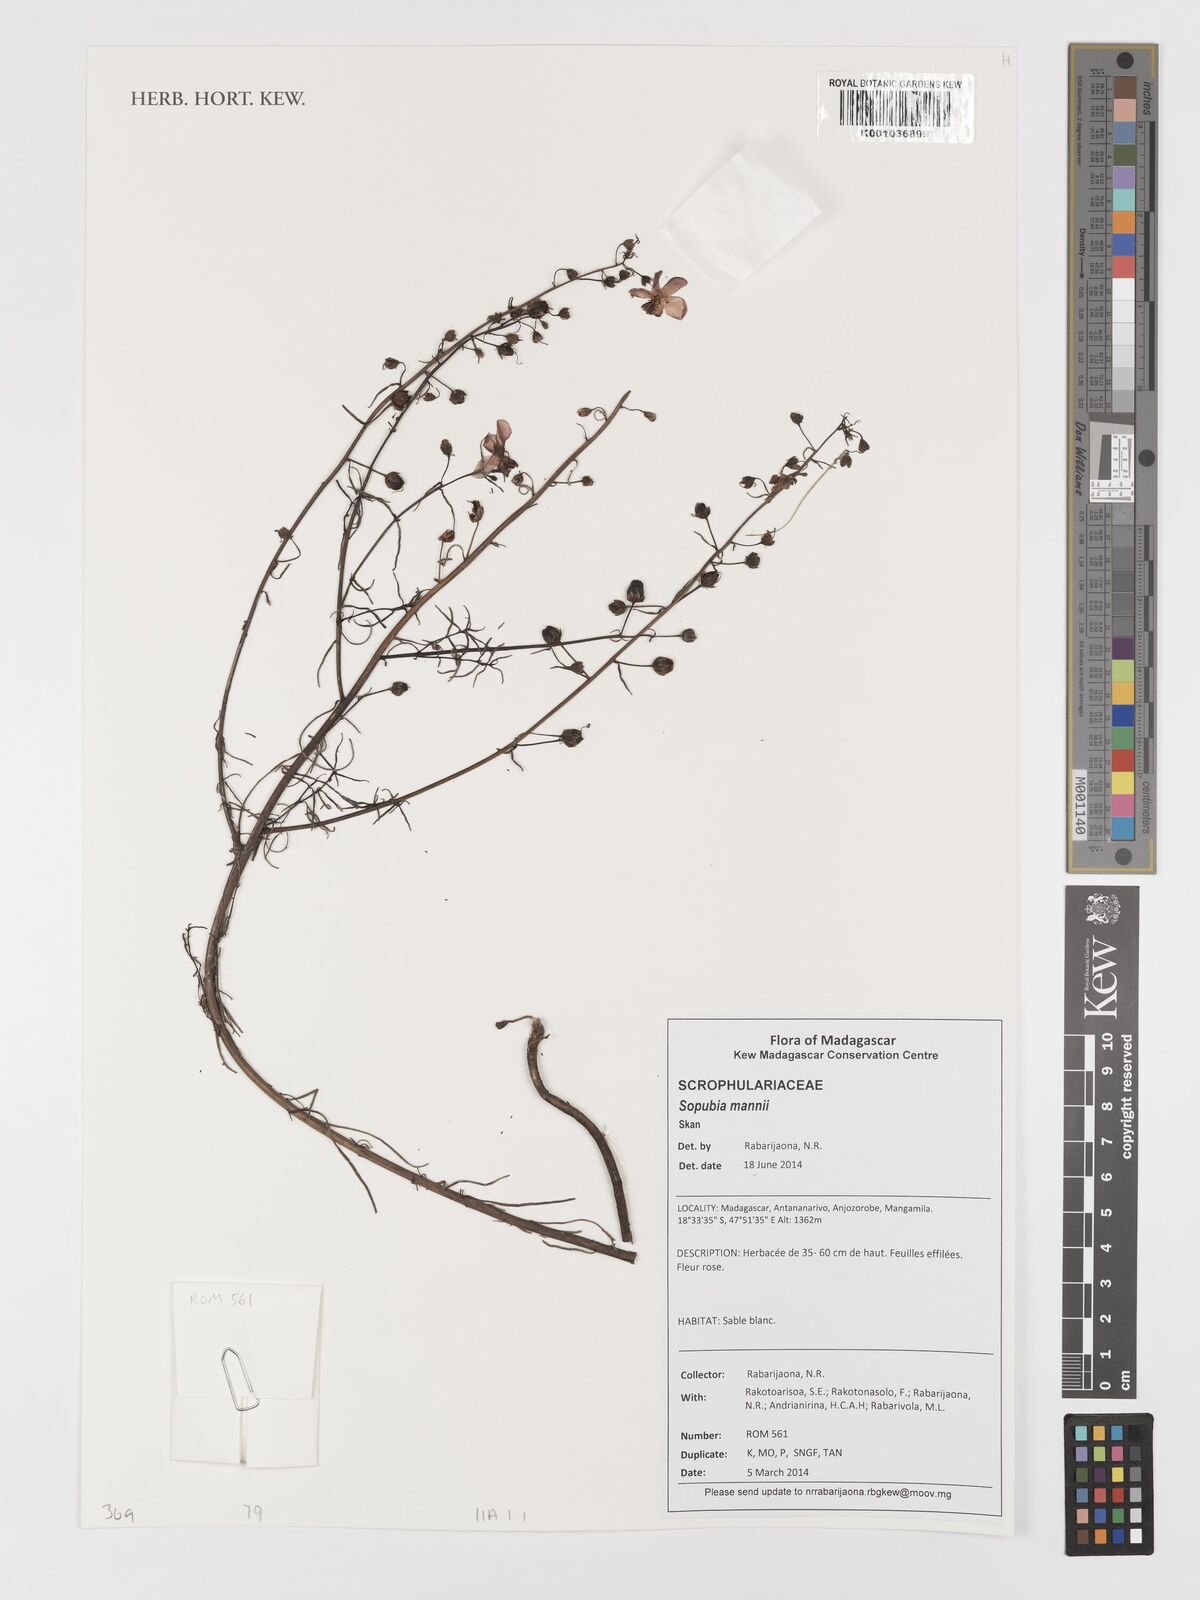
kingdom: Plantae
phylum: Tracheophyta
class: Magnoliopsida
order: Lamiales
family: Orobanchaceae
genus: Sopubia
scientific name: Sopubia mannii
